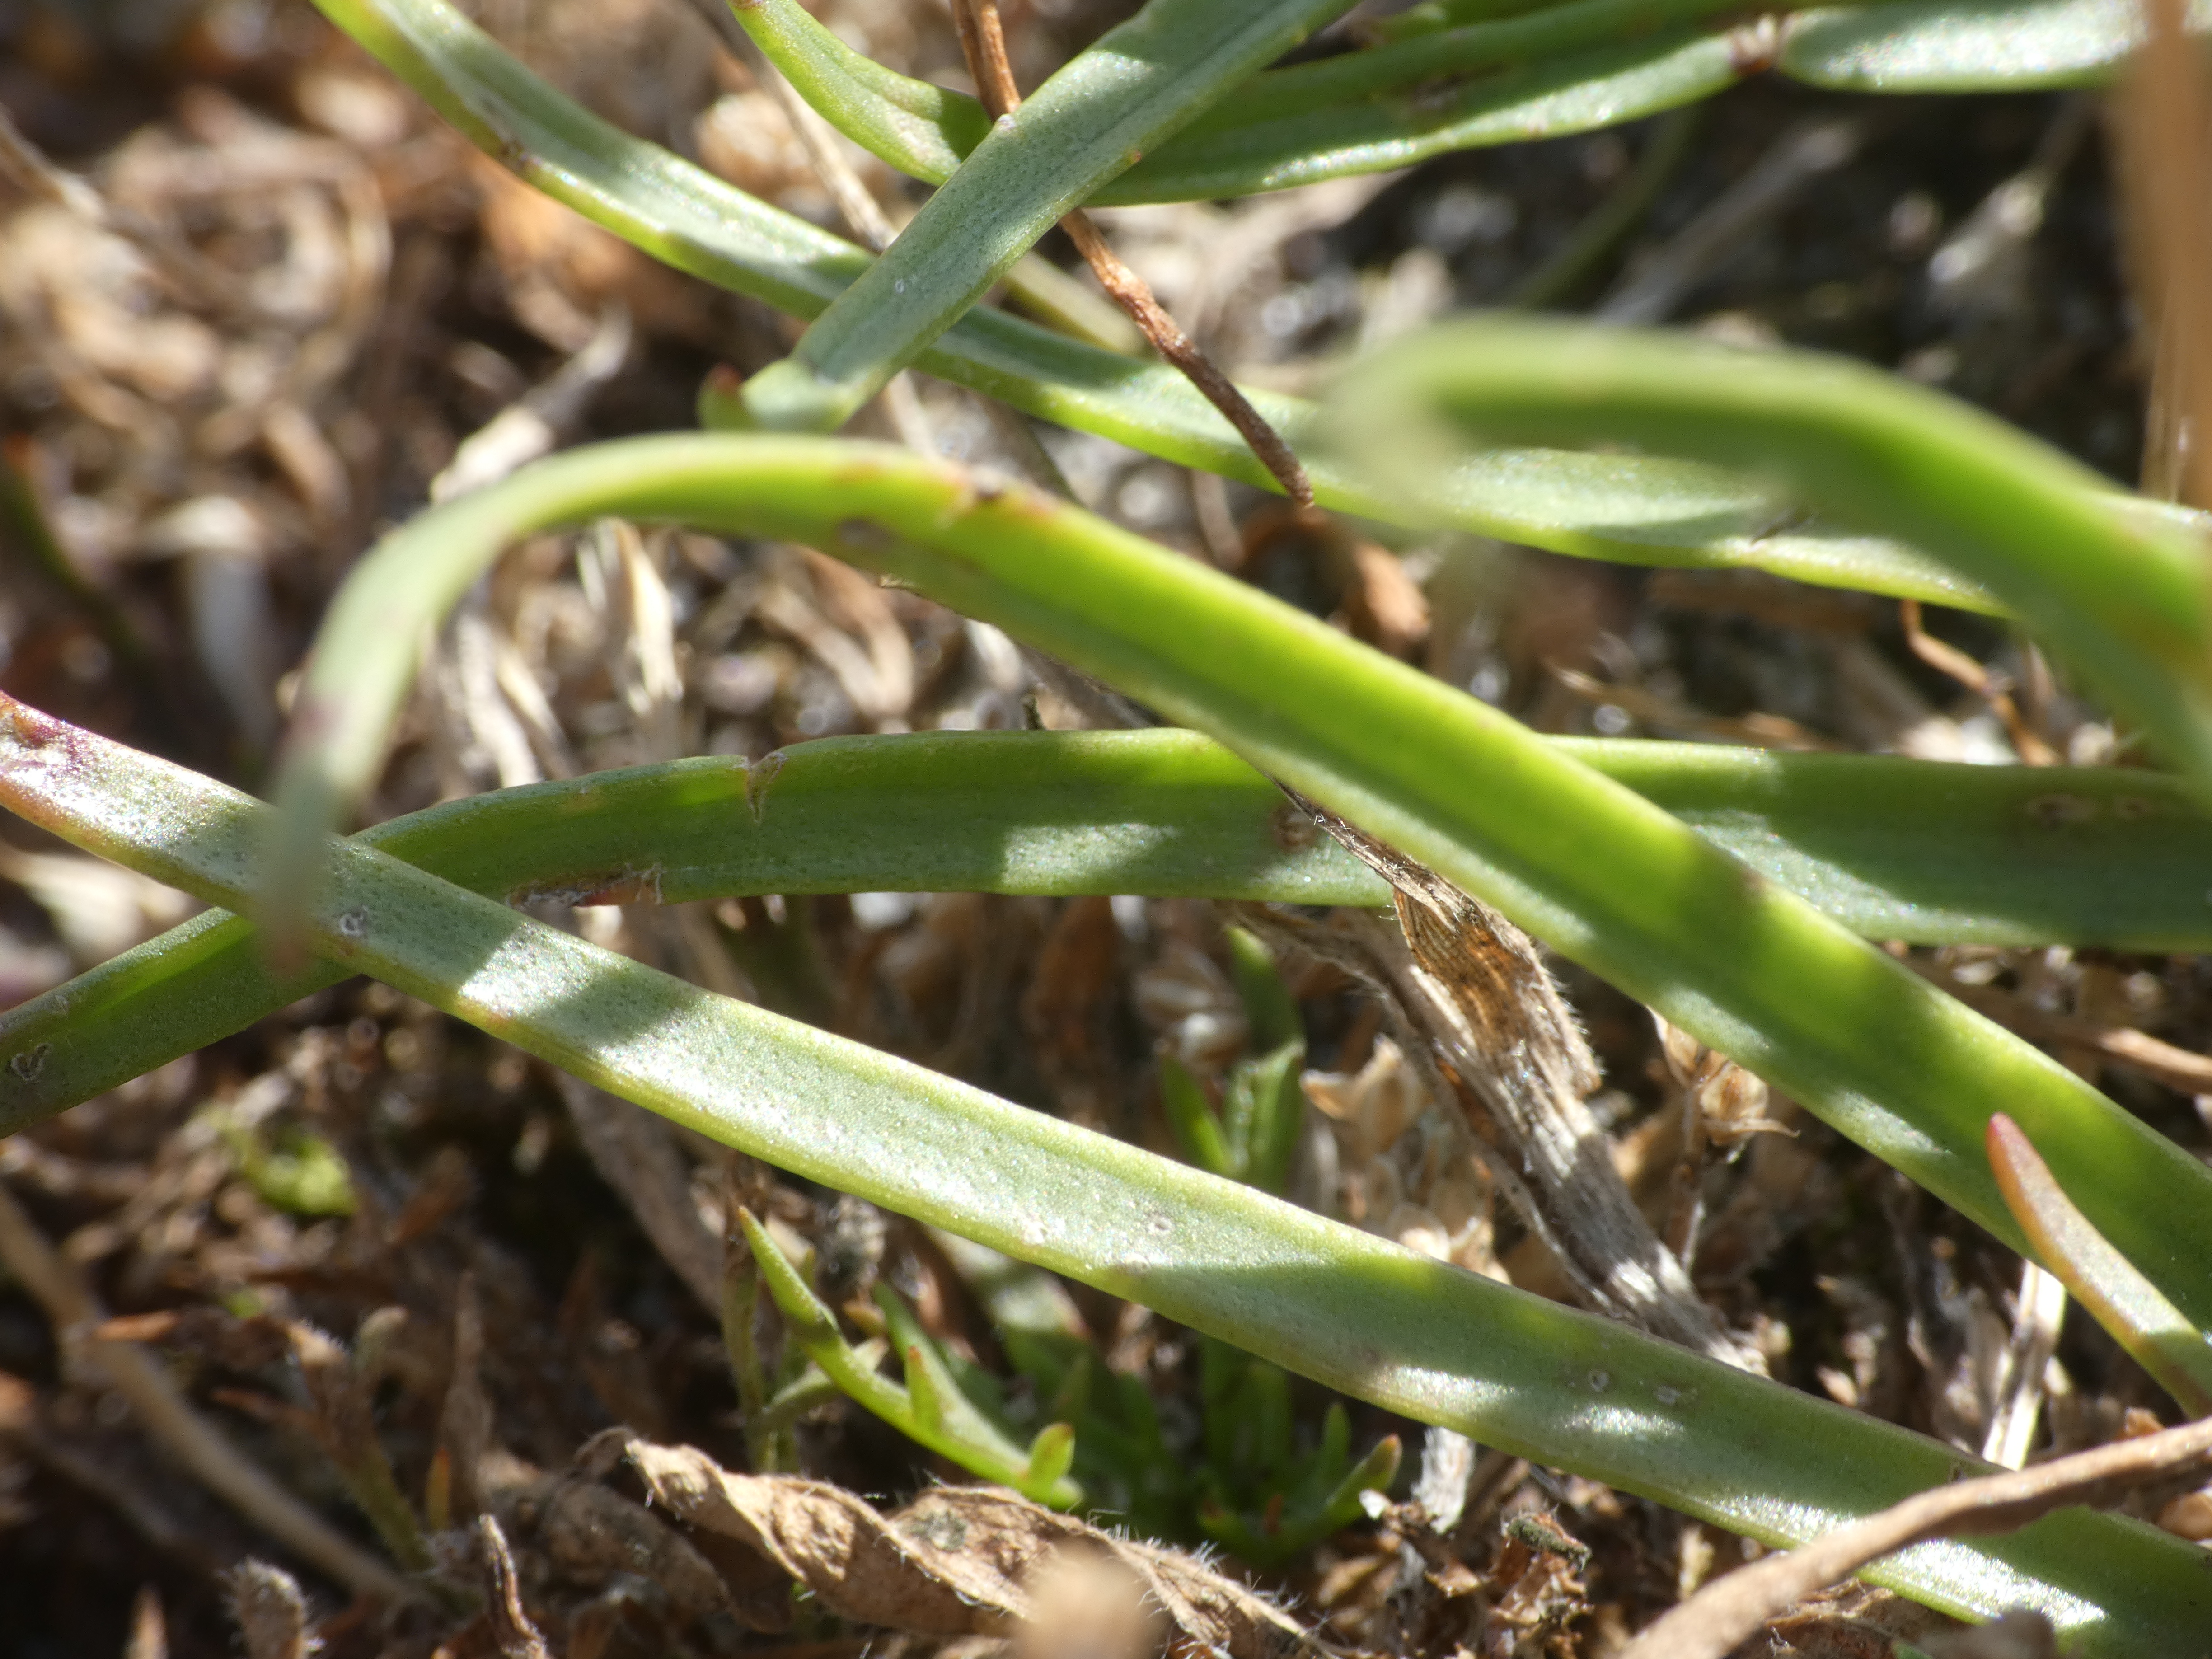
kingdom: Plantae
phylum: Tracheophyta
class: Magnoliopsida
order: Lamiales
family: Plantaginaceae
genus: Plantago
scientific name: Plantago maritima
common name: Strand-vejbred
